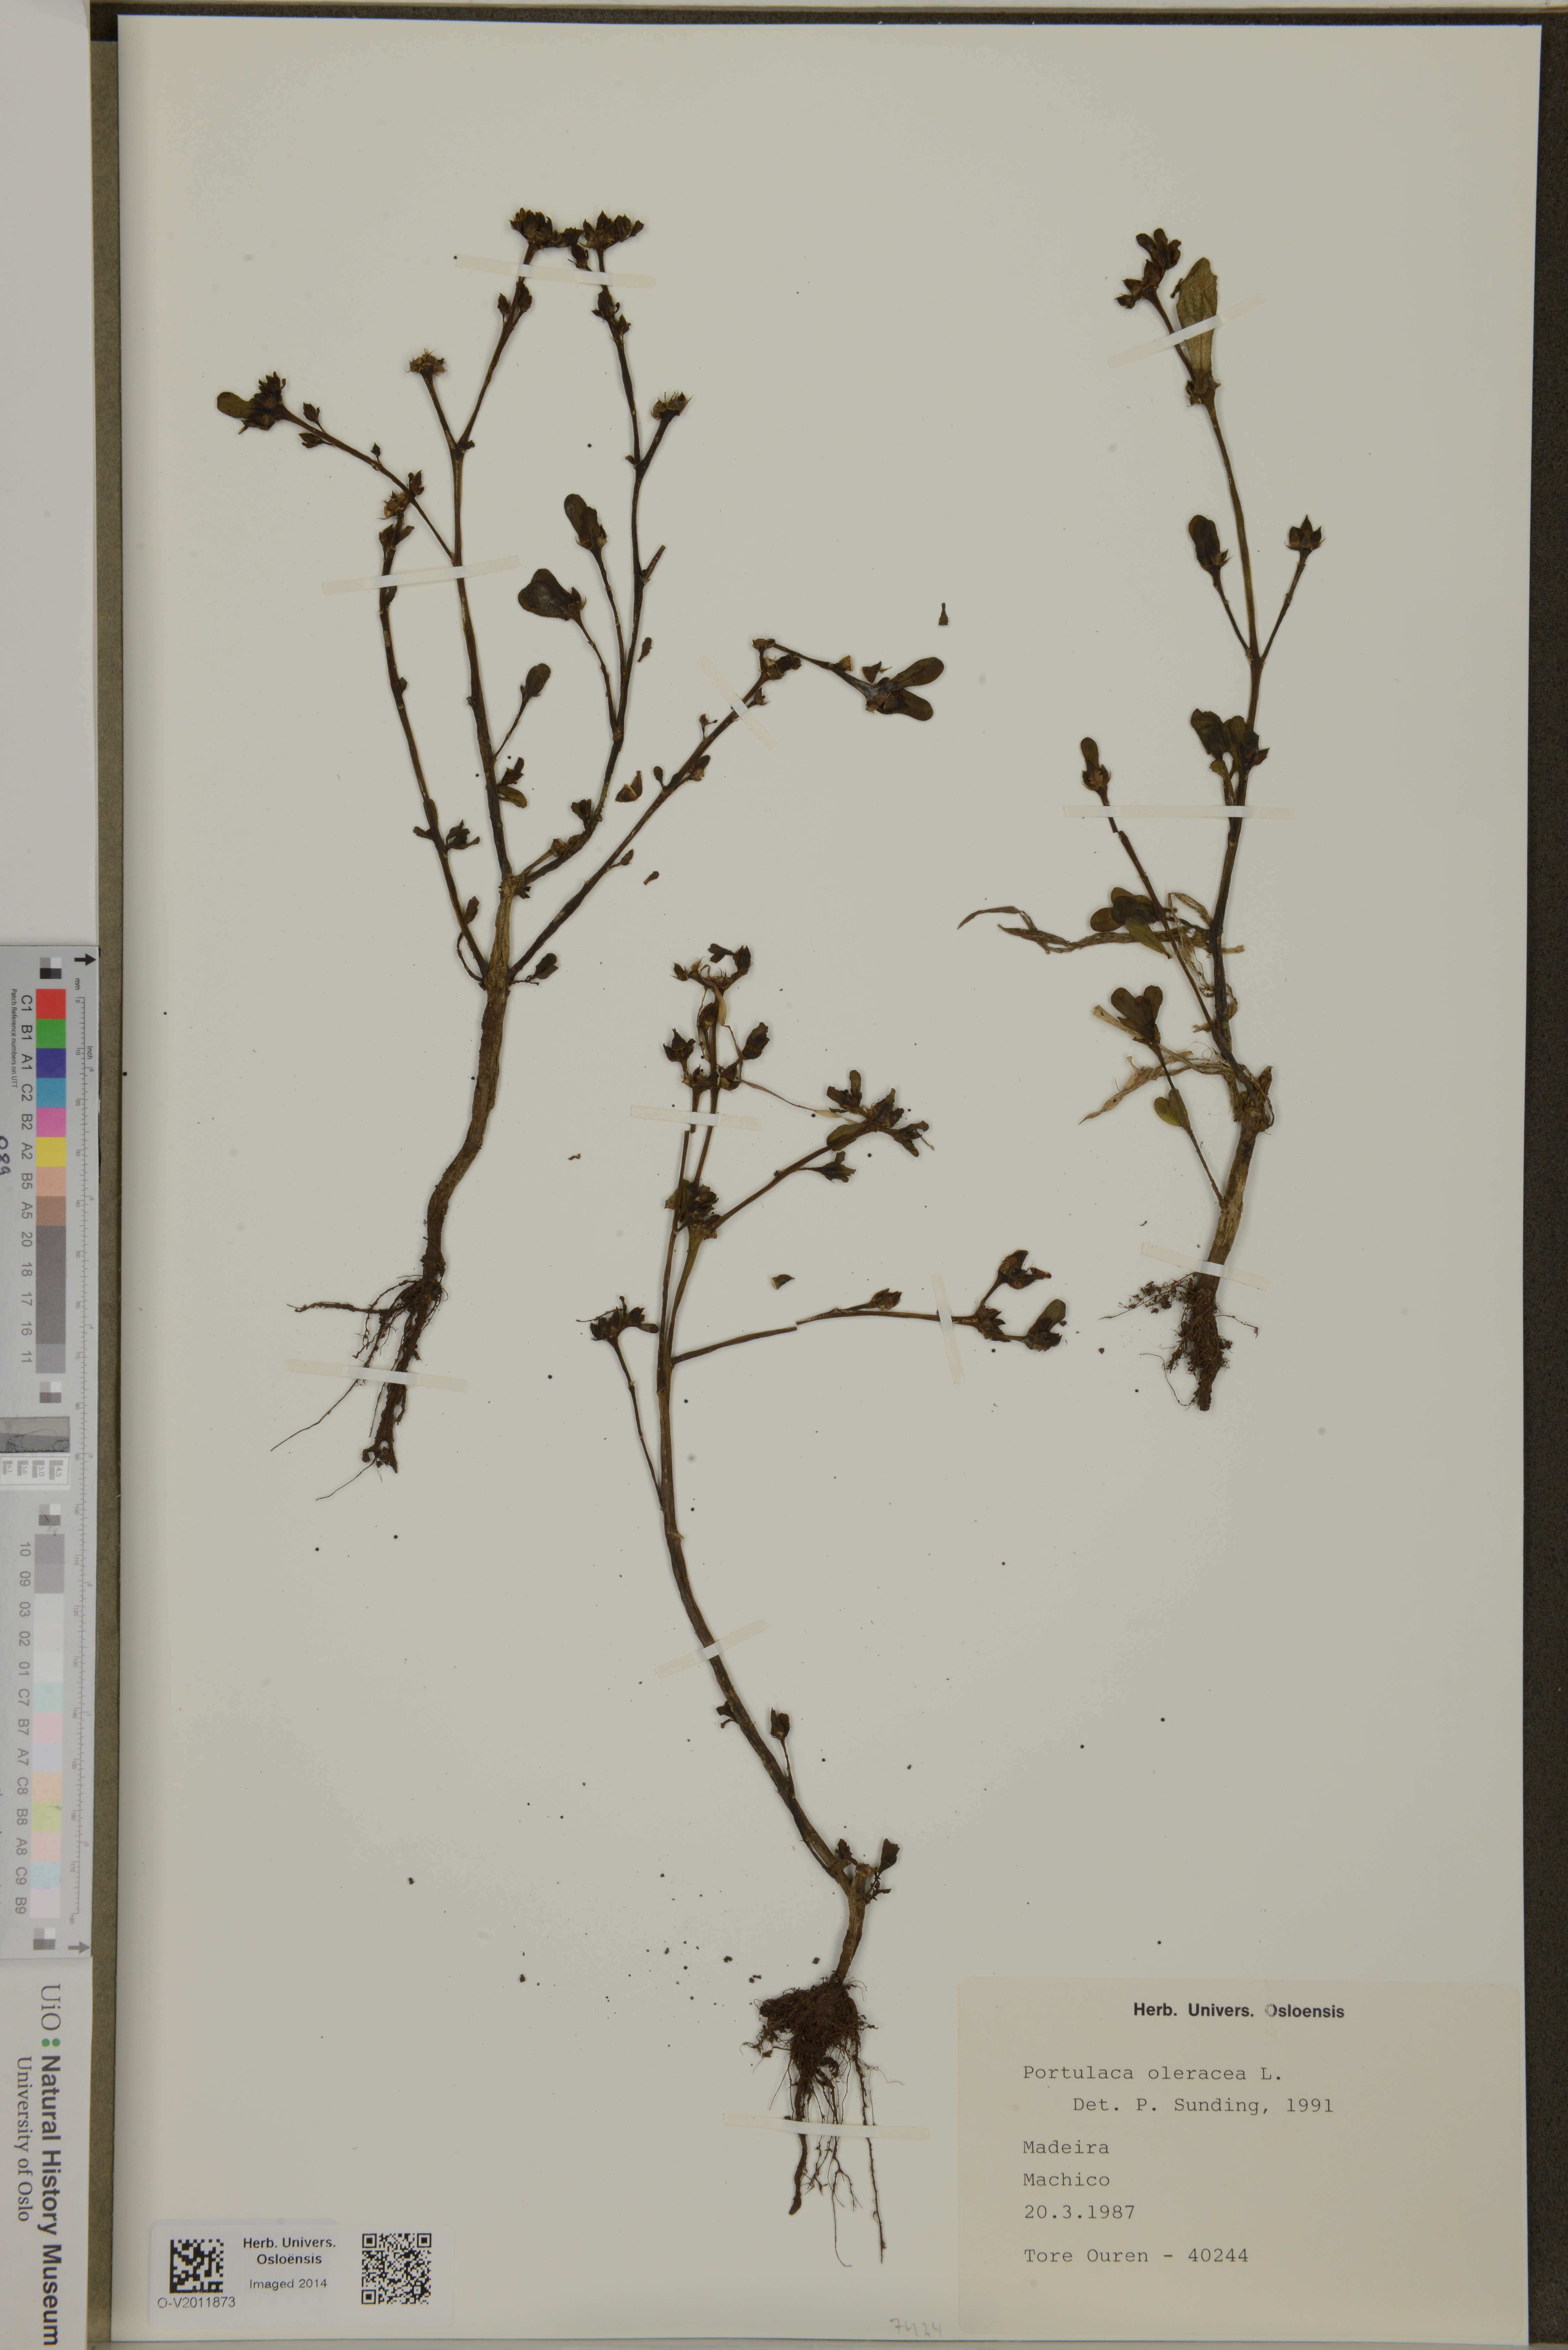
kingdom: Plantae
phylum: Tracheophyta
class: Magnoliopsida
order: Caryophyllales
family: Portulacaceae
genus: Portulaca
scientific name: Portulaca oleracea
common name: Common purslane
